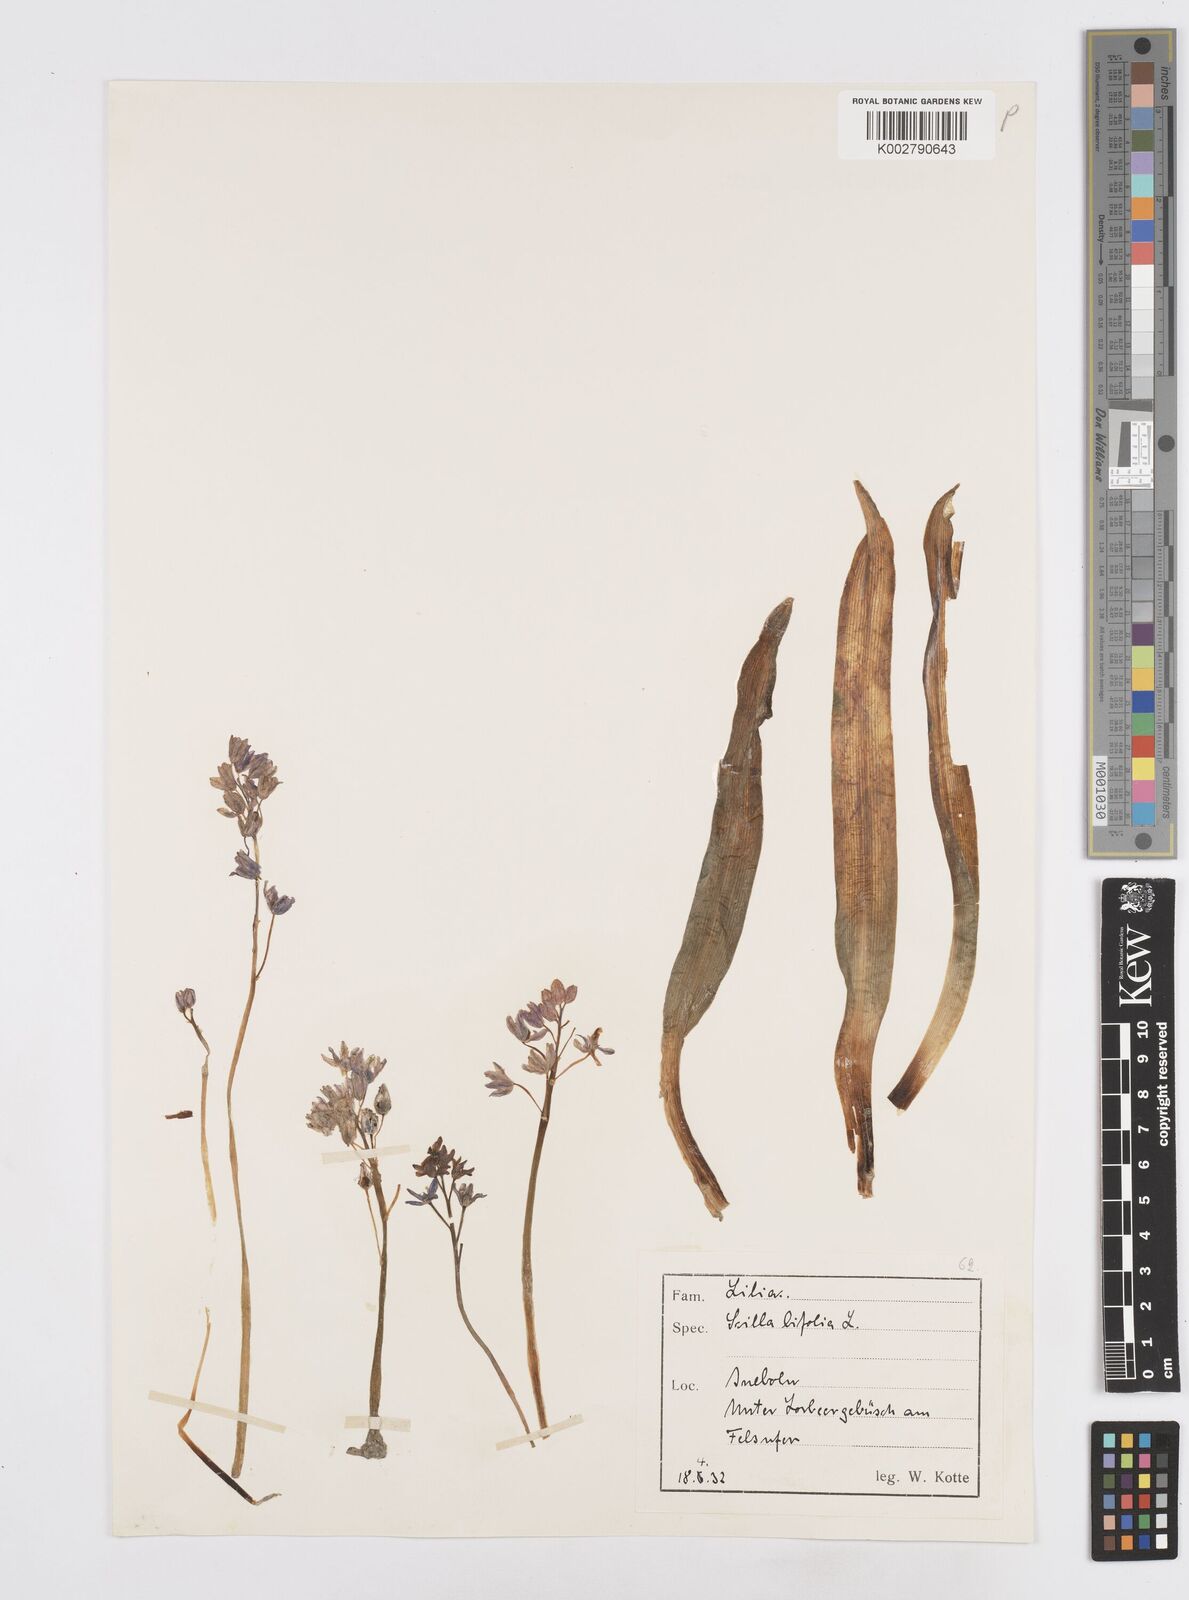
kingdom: Plantae
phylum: Tracheophyta
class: Liliopsida
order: Asparagales
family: Asparagaceae
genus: Scilla
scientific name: Scilla bithynica
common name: Turkish squill
